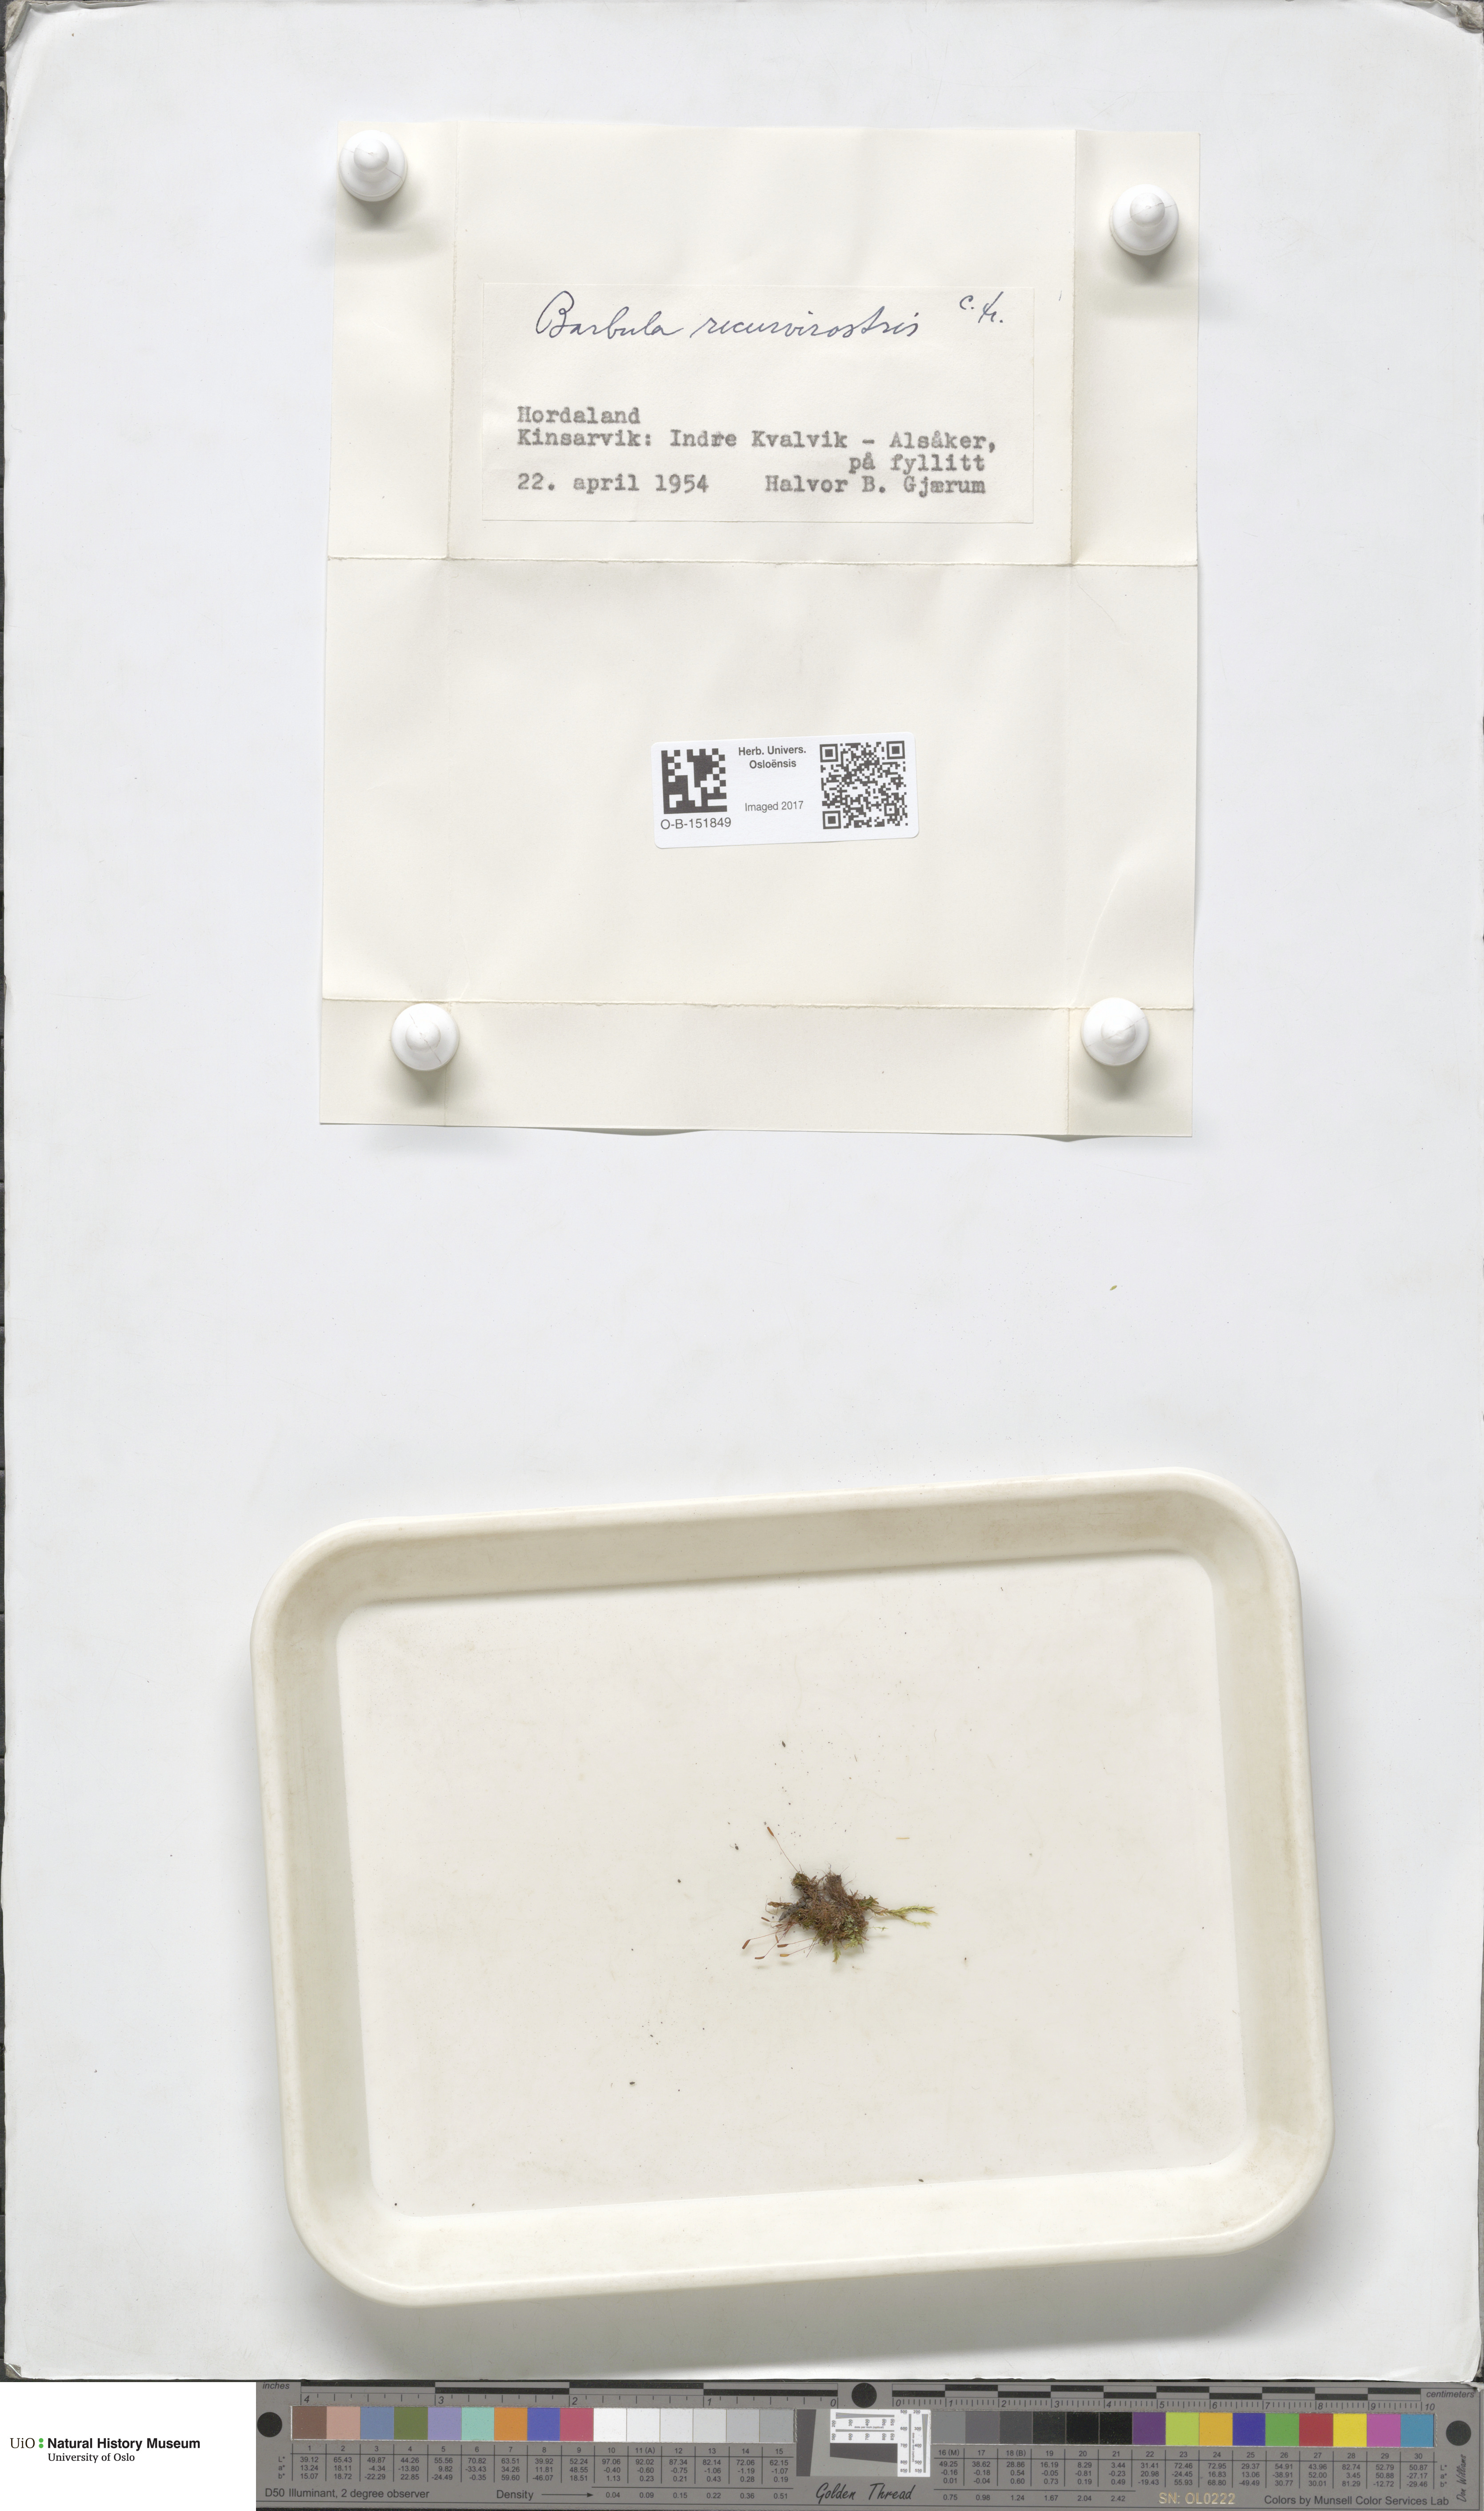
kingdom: Plantae
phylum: Bryophyta
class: Bryopsida
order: Pottiales
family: Pottiaceae
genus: Bryoerythrophyllum
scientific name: Bryoerythrophyllum recurvirostrum
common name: Red beard moss
